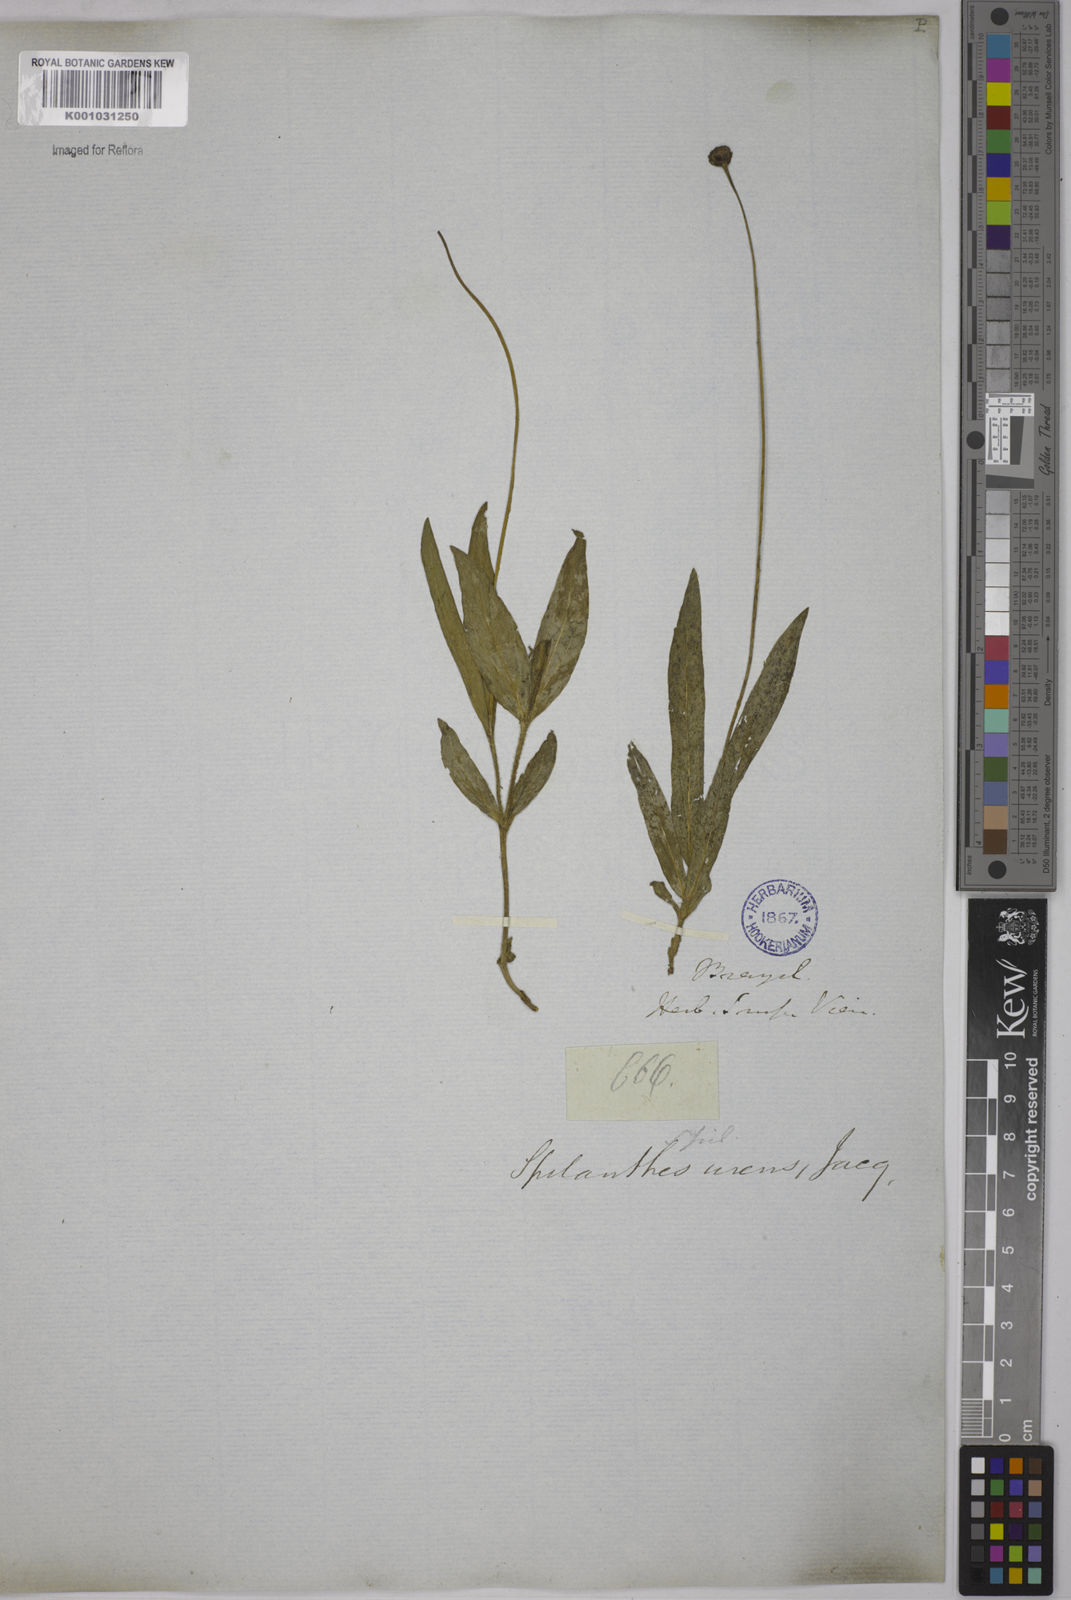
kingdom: Plantae
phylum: Tracheophyta
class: Magnoliopsida
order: Asterales
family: Asteraceae
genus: Spilanthes
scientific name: Spilanthes urens
